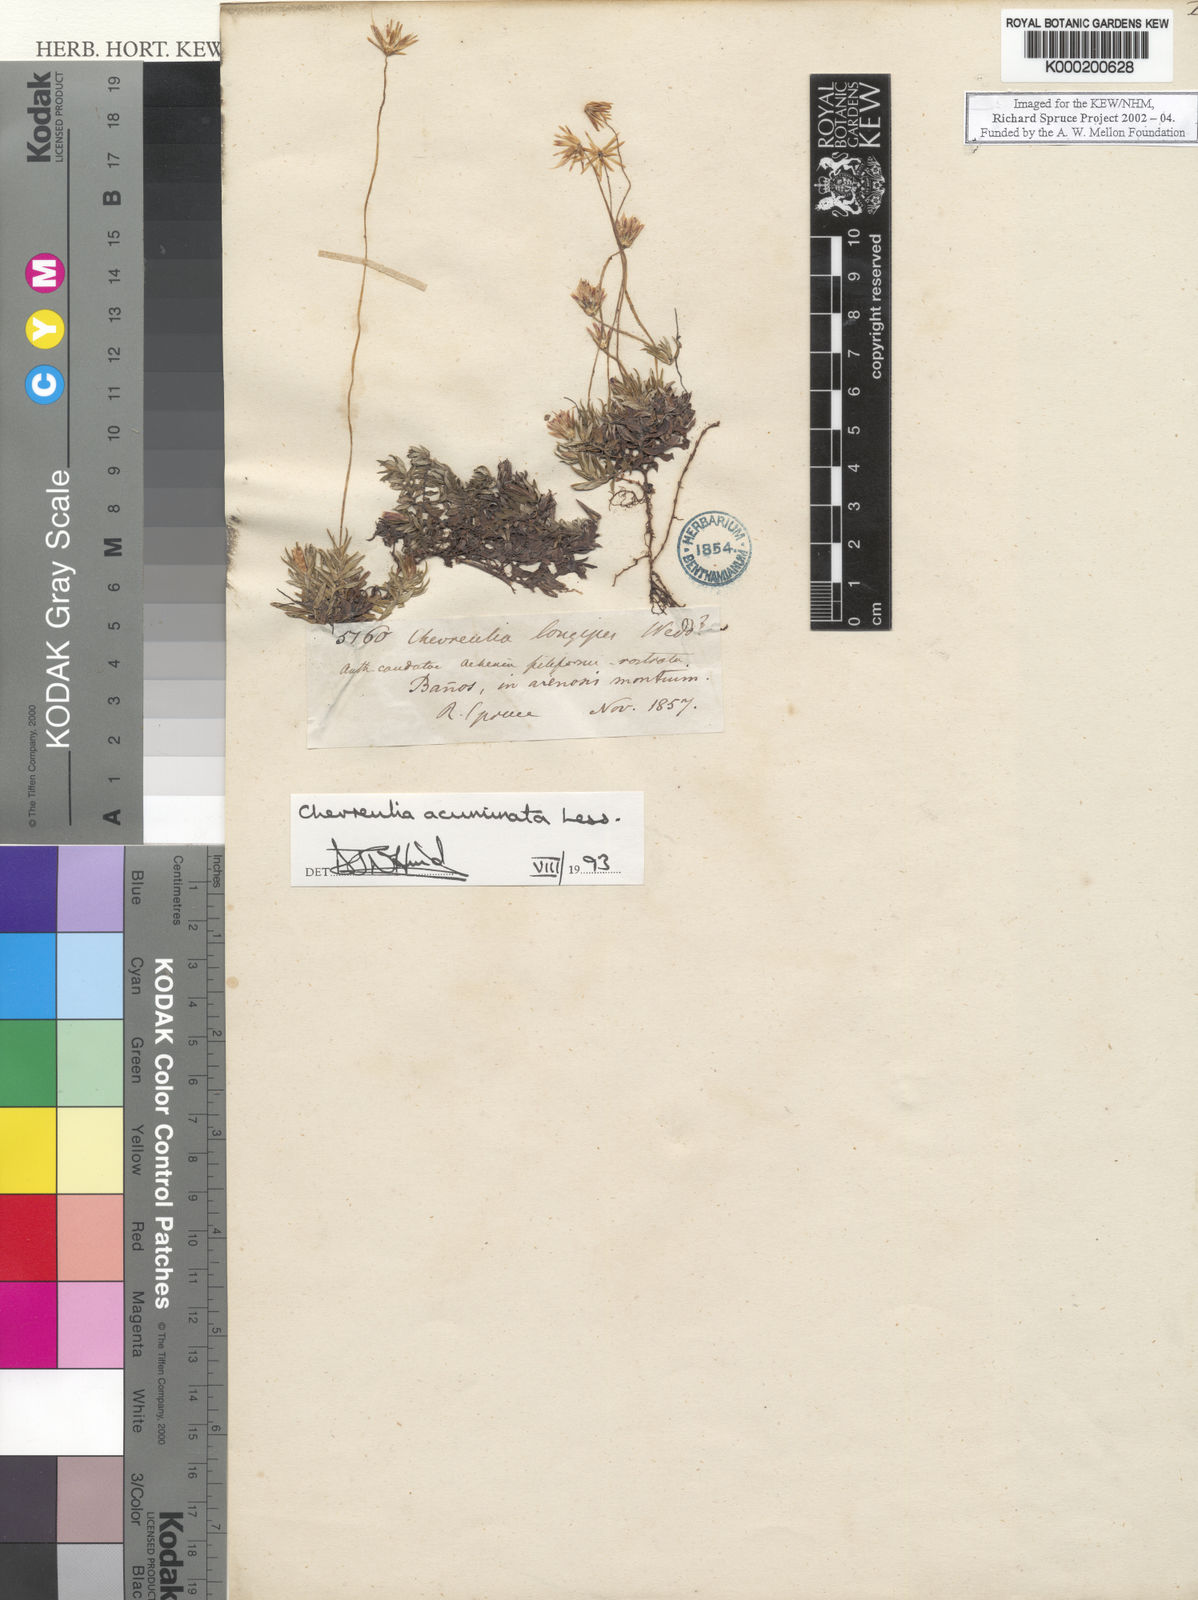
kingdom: Plantae
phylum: Tracheophyta
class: Magnoliopsida
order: Asterales
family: Asteraceae
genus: Chevreulia
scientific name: Chevreulia acuminata
